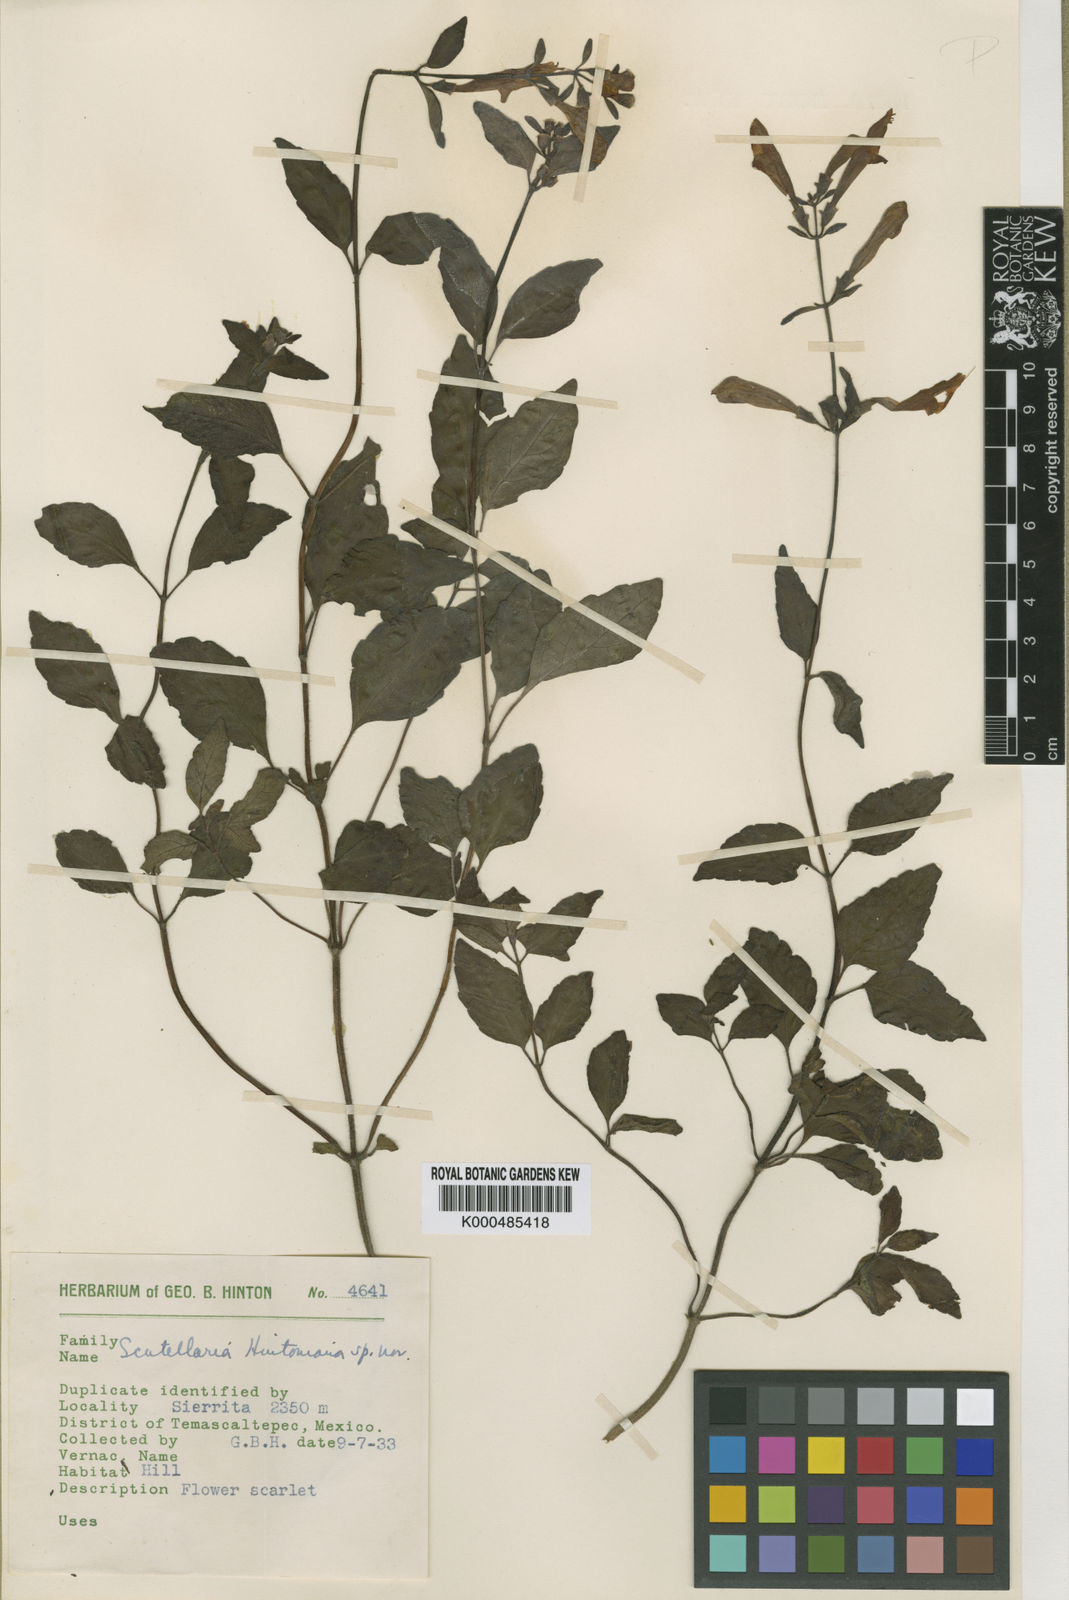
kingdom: Plantae
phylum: Tracheophyta
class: Magnoliopsida
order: Lamiales
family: Lamiaceae
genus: Scutellaria
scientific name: Scutellaria hintoniana
